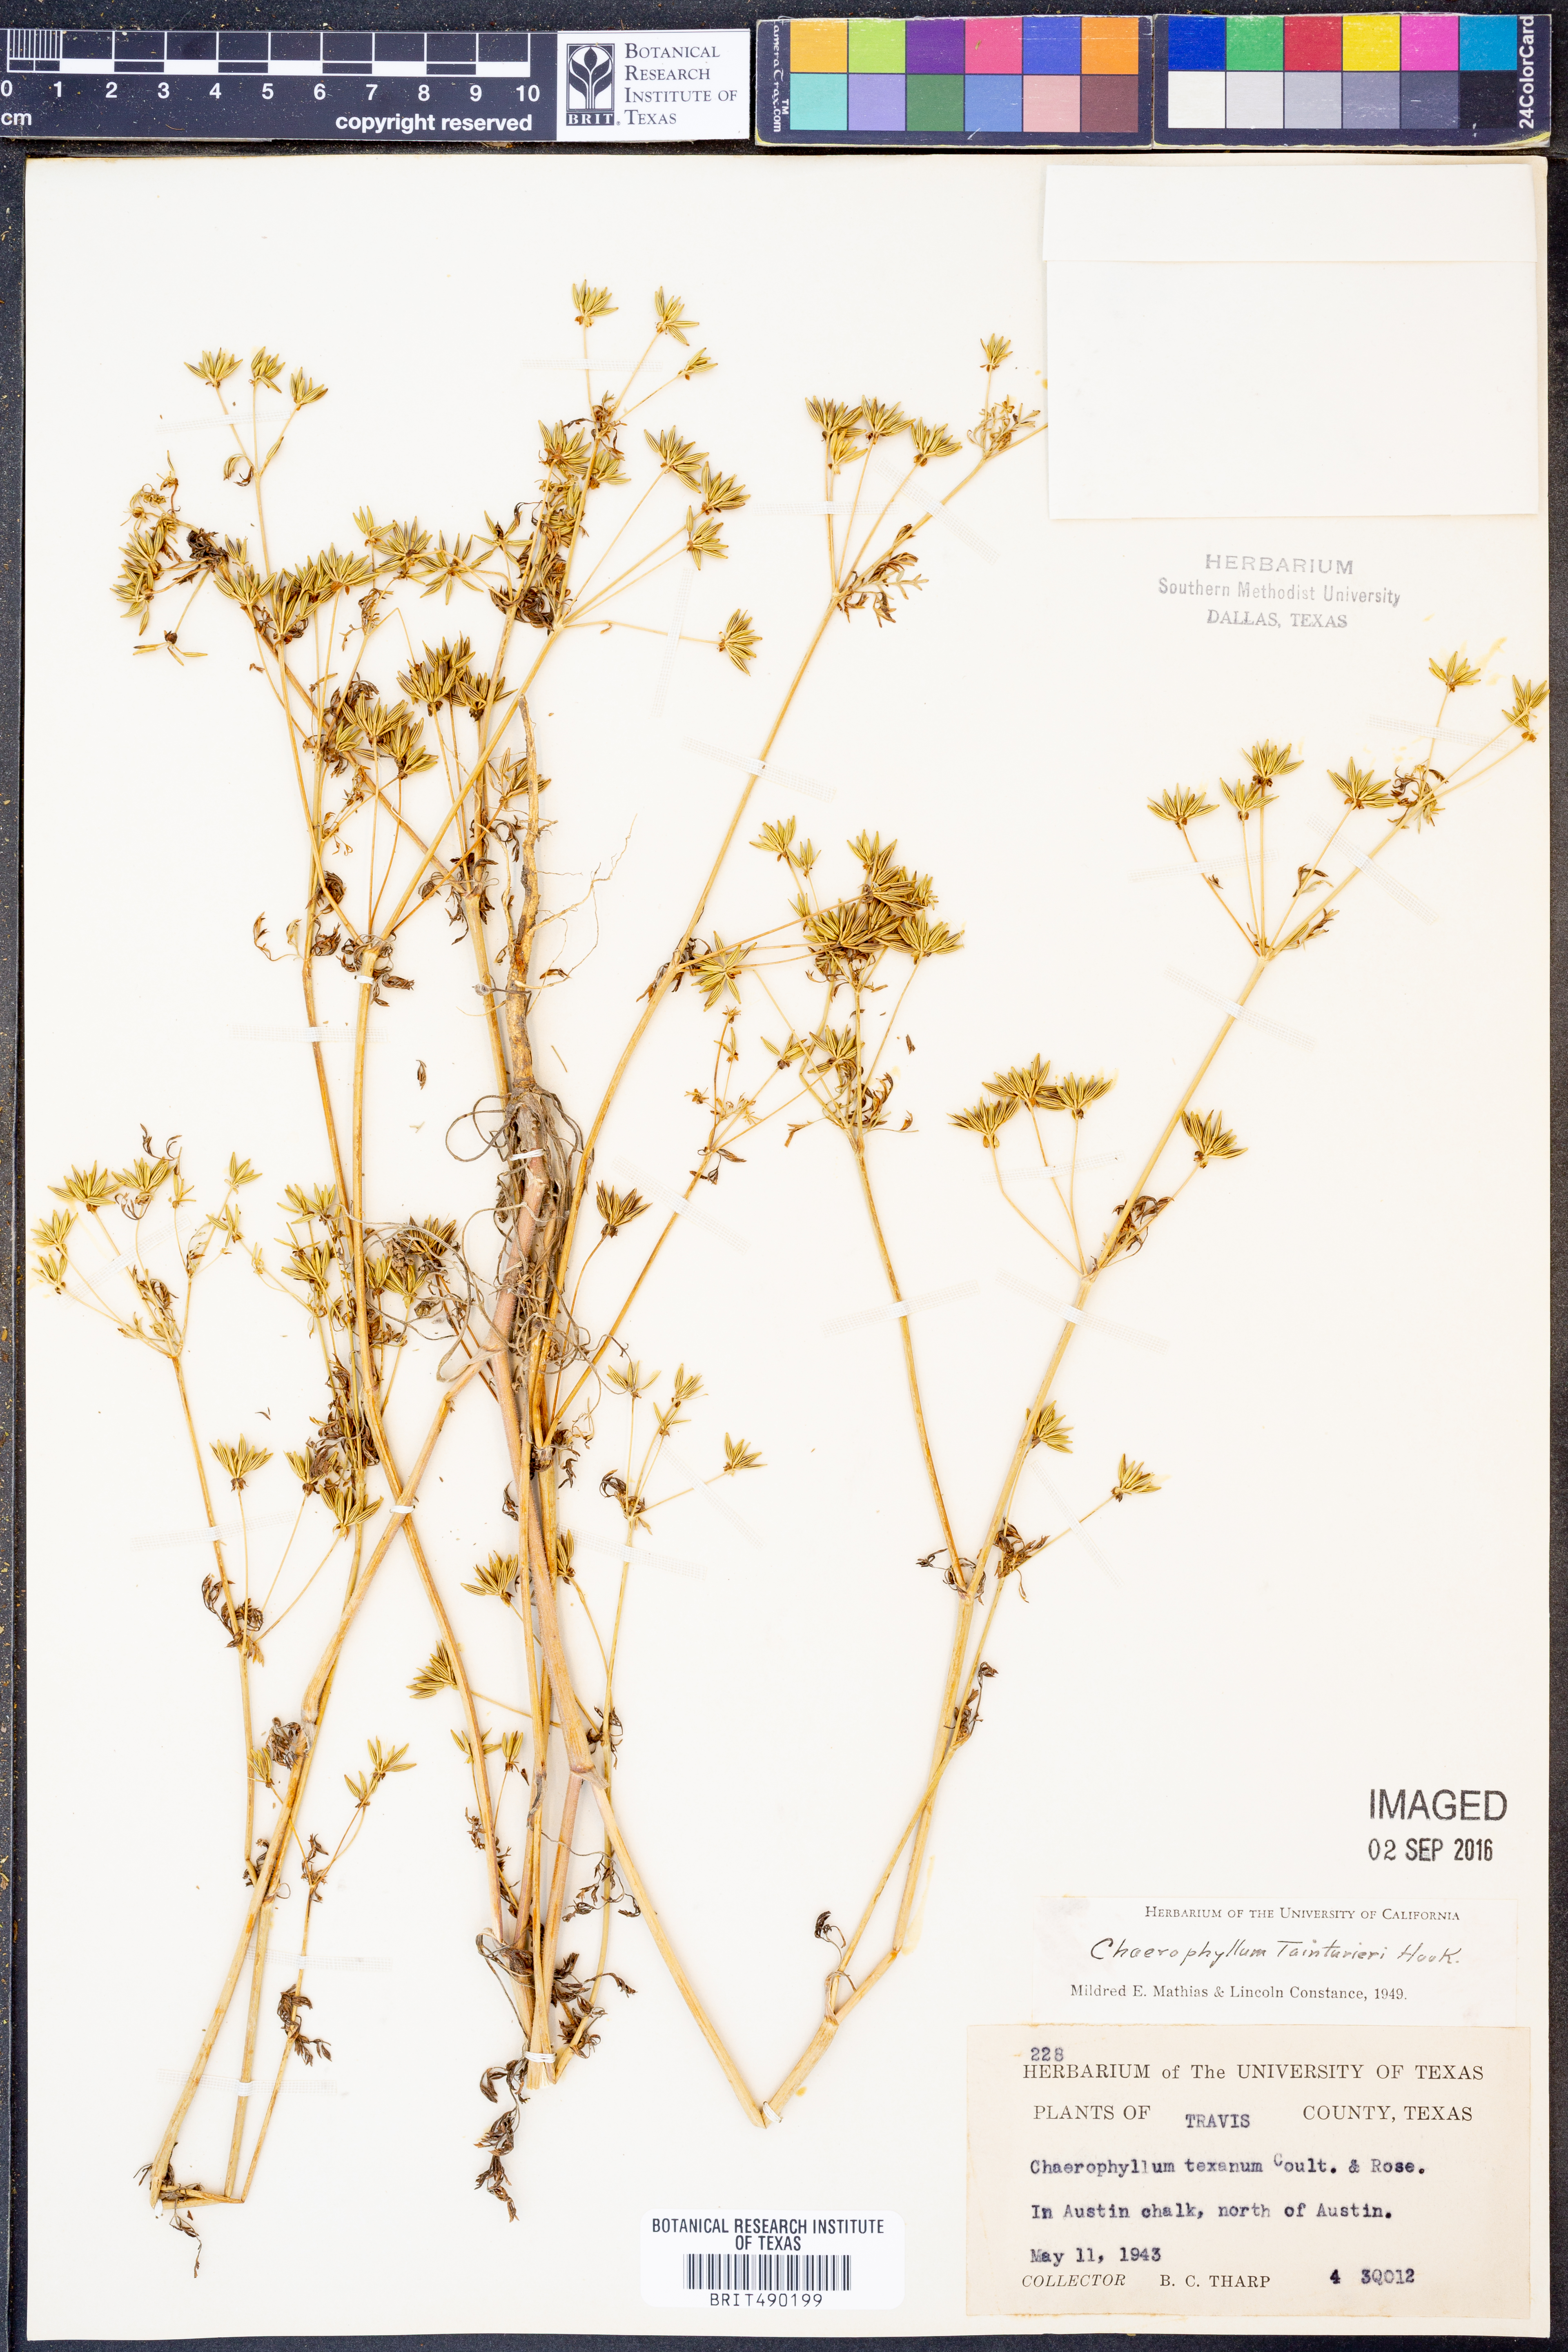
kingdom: Plantae
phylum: Tracheophyta
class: Magnoliopsida
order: Apiales
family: Apiaceae
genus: Chaerophyllum
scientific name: Chaerophyllum tainturieri
